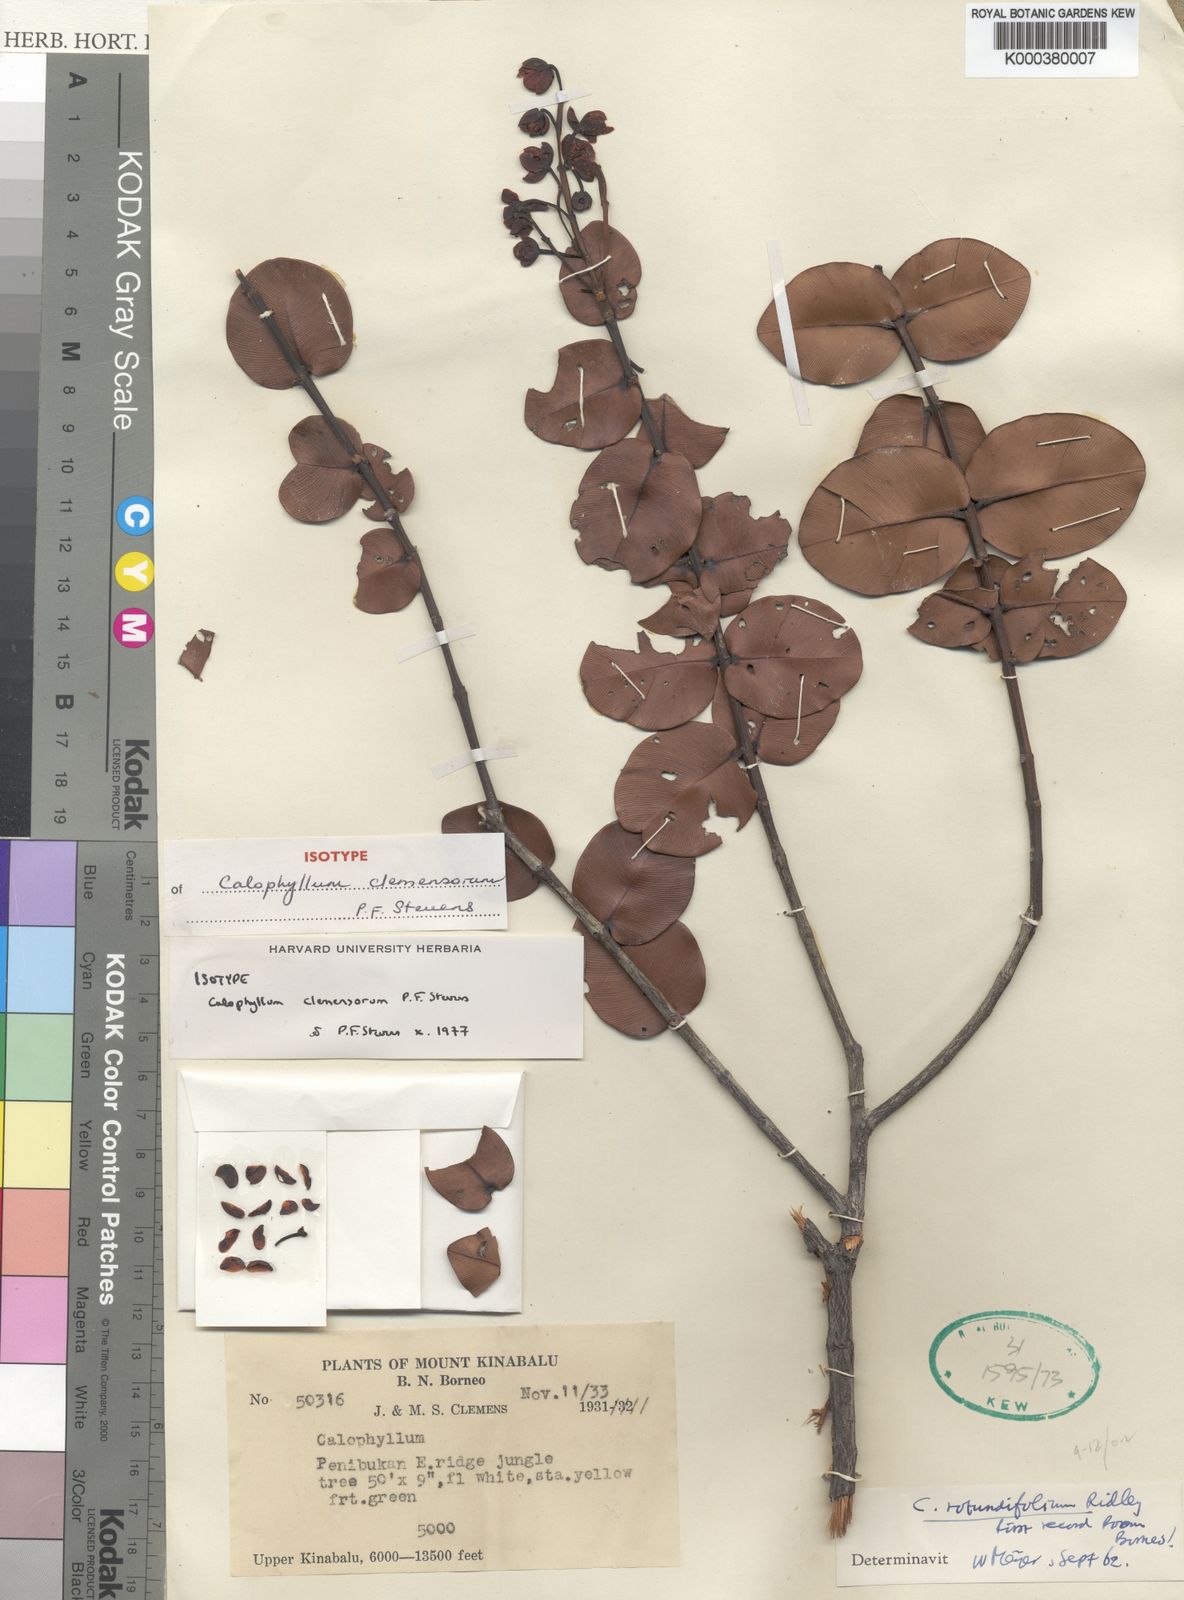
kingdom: Plantae
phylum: Tracheophyta
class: Magnoliopsida
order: Malpighiales
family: Calophyllaceae
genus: Calophyllum
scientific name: Calophyllum
